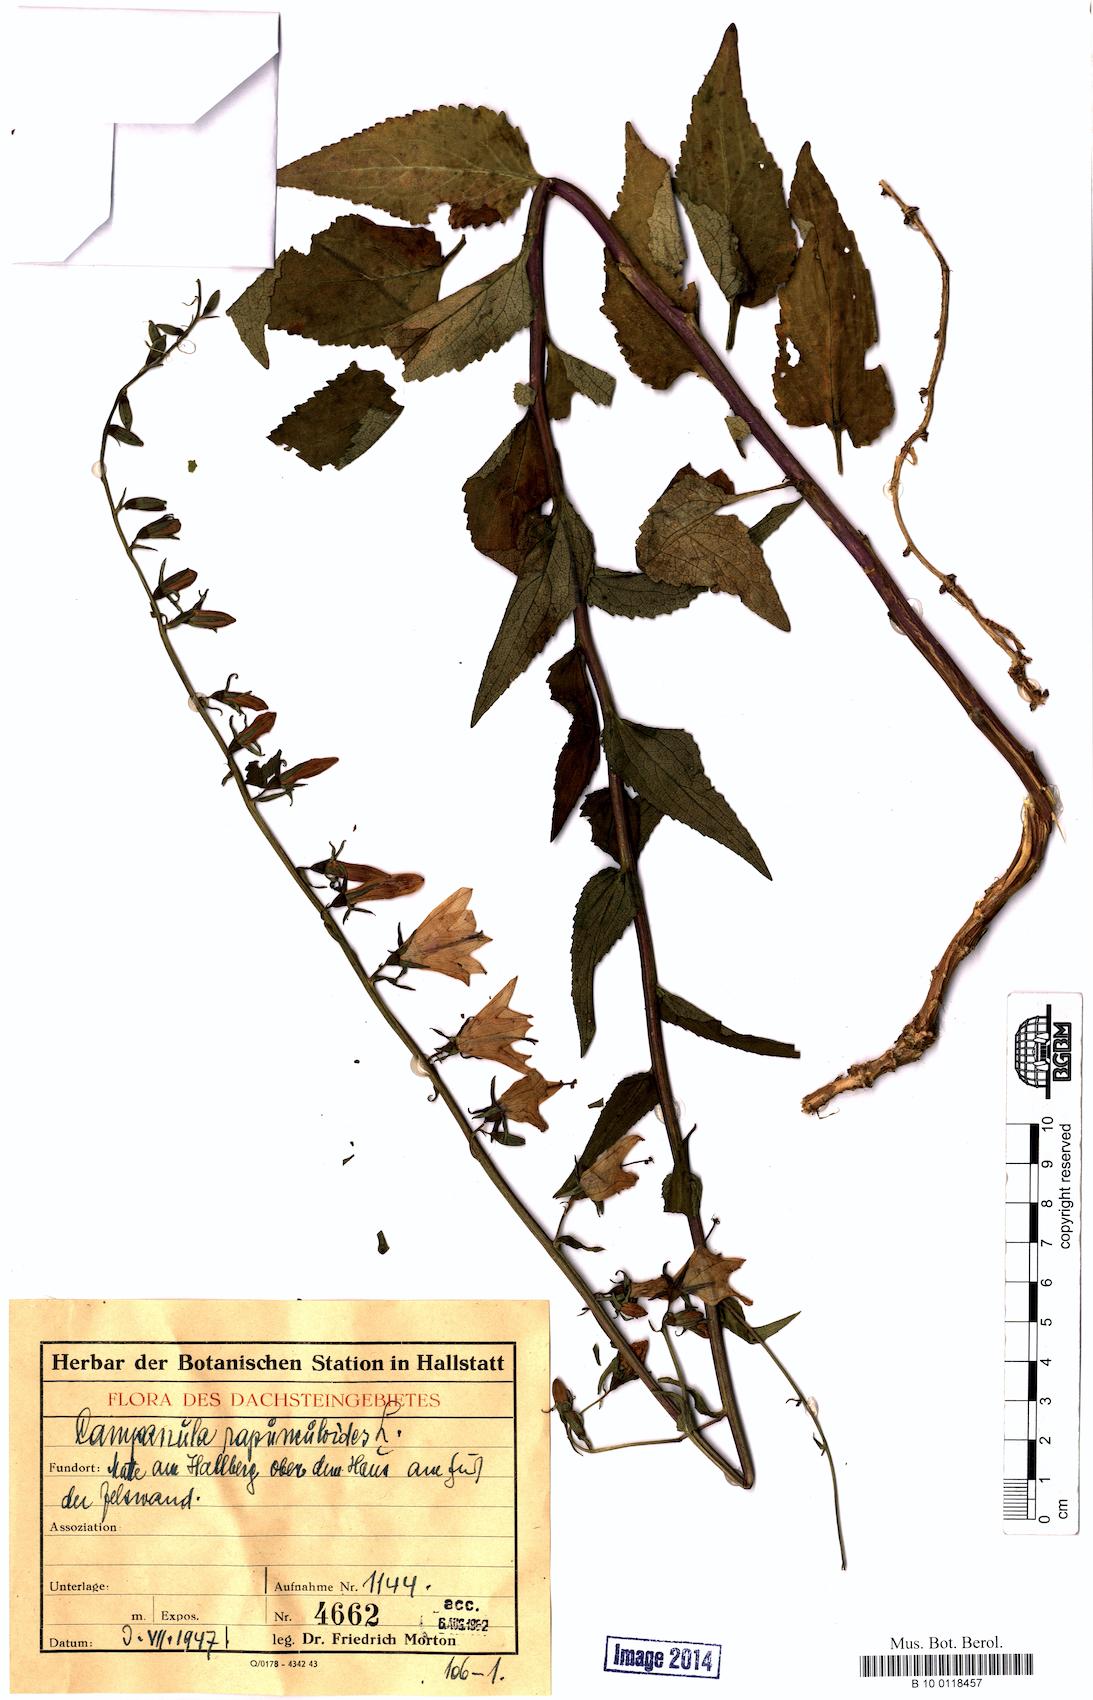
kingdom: Plantae
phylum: Tracheophyta
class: Magnoliopsida
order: Asterales
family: Campanulaceae
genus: Campanula
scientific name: Campanula rapunculoides
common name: Creeping bellflower
